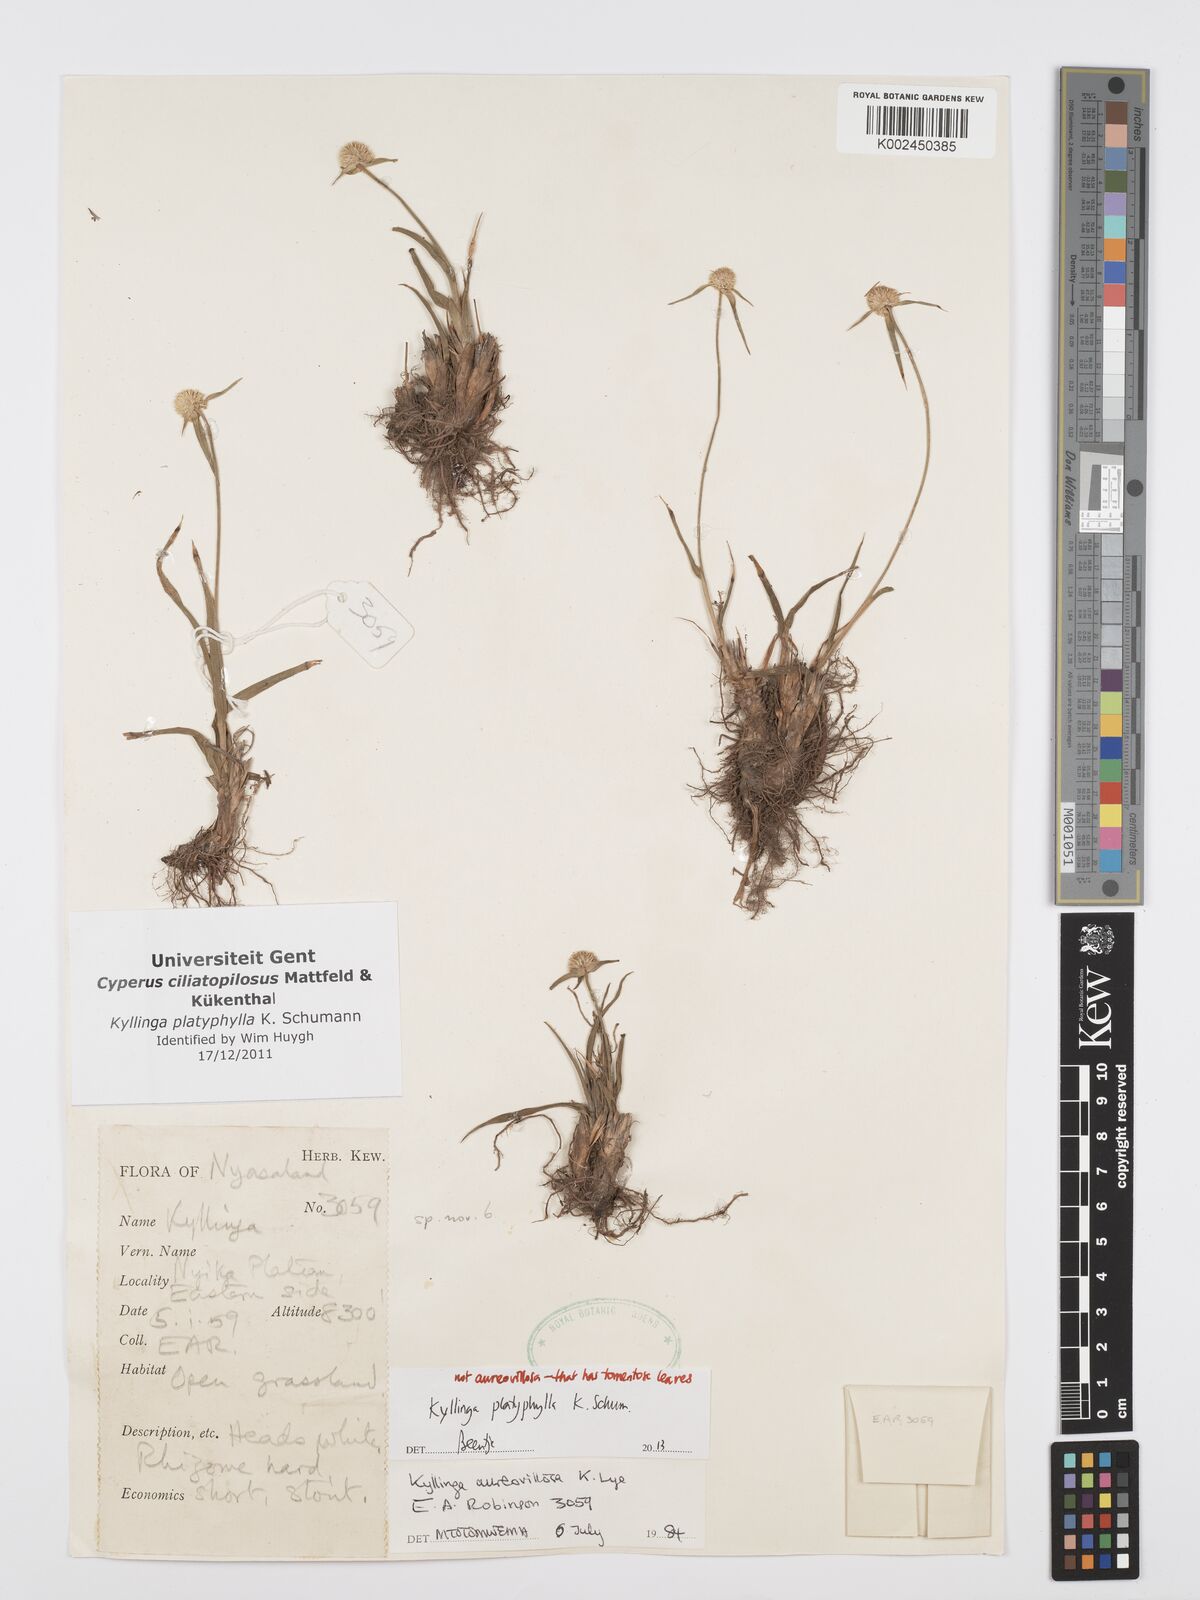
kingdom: Plantae
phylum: Tracheophyta
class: Liliopsida
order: Poales
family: Cyperaceae
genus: Cyperus
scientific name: Cyperus
